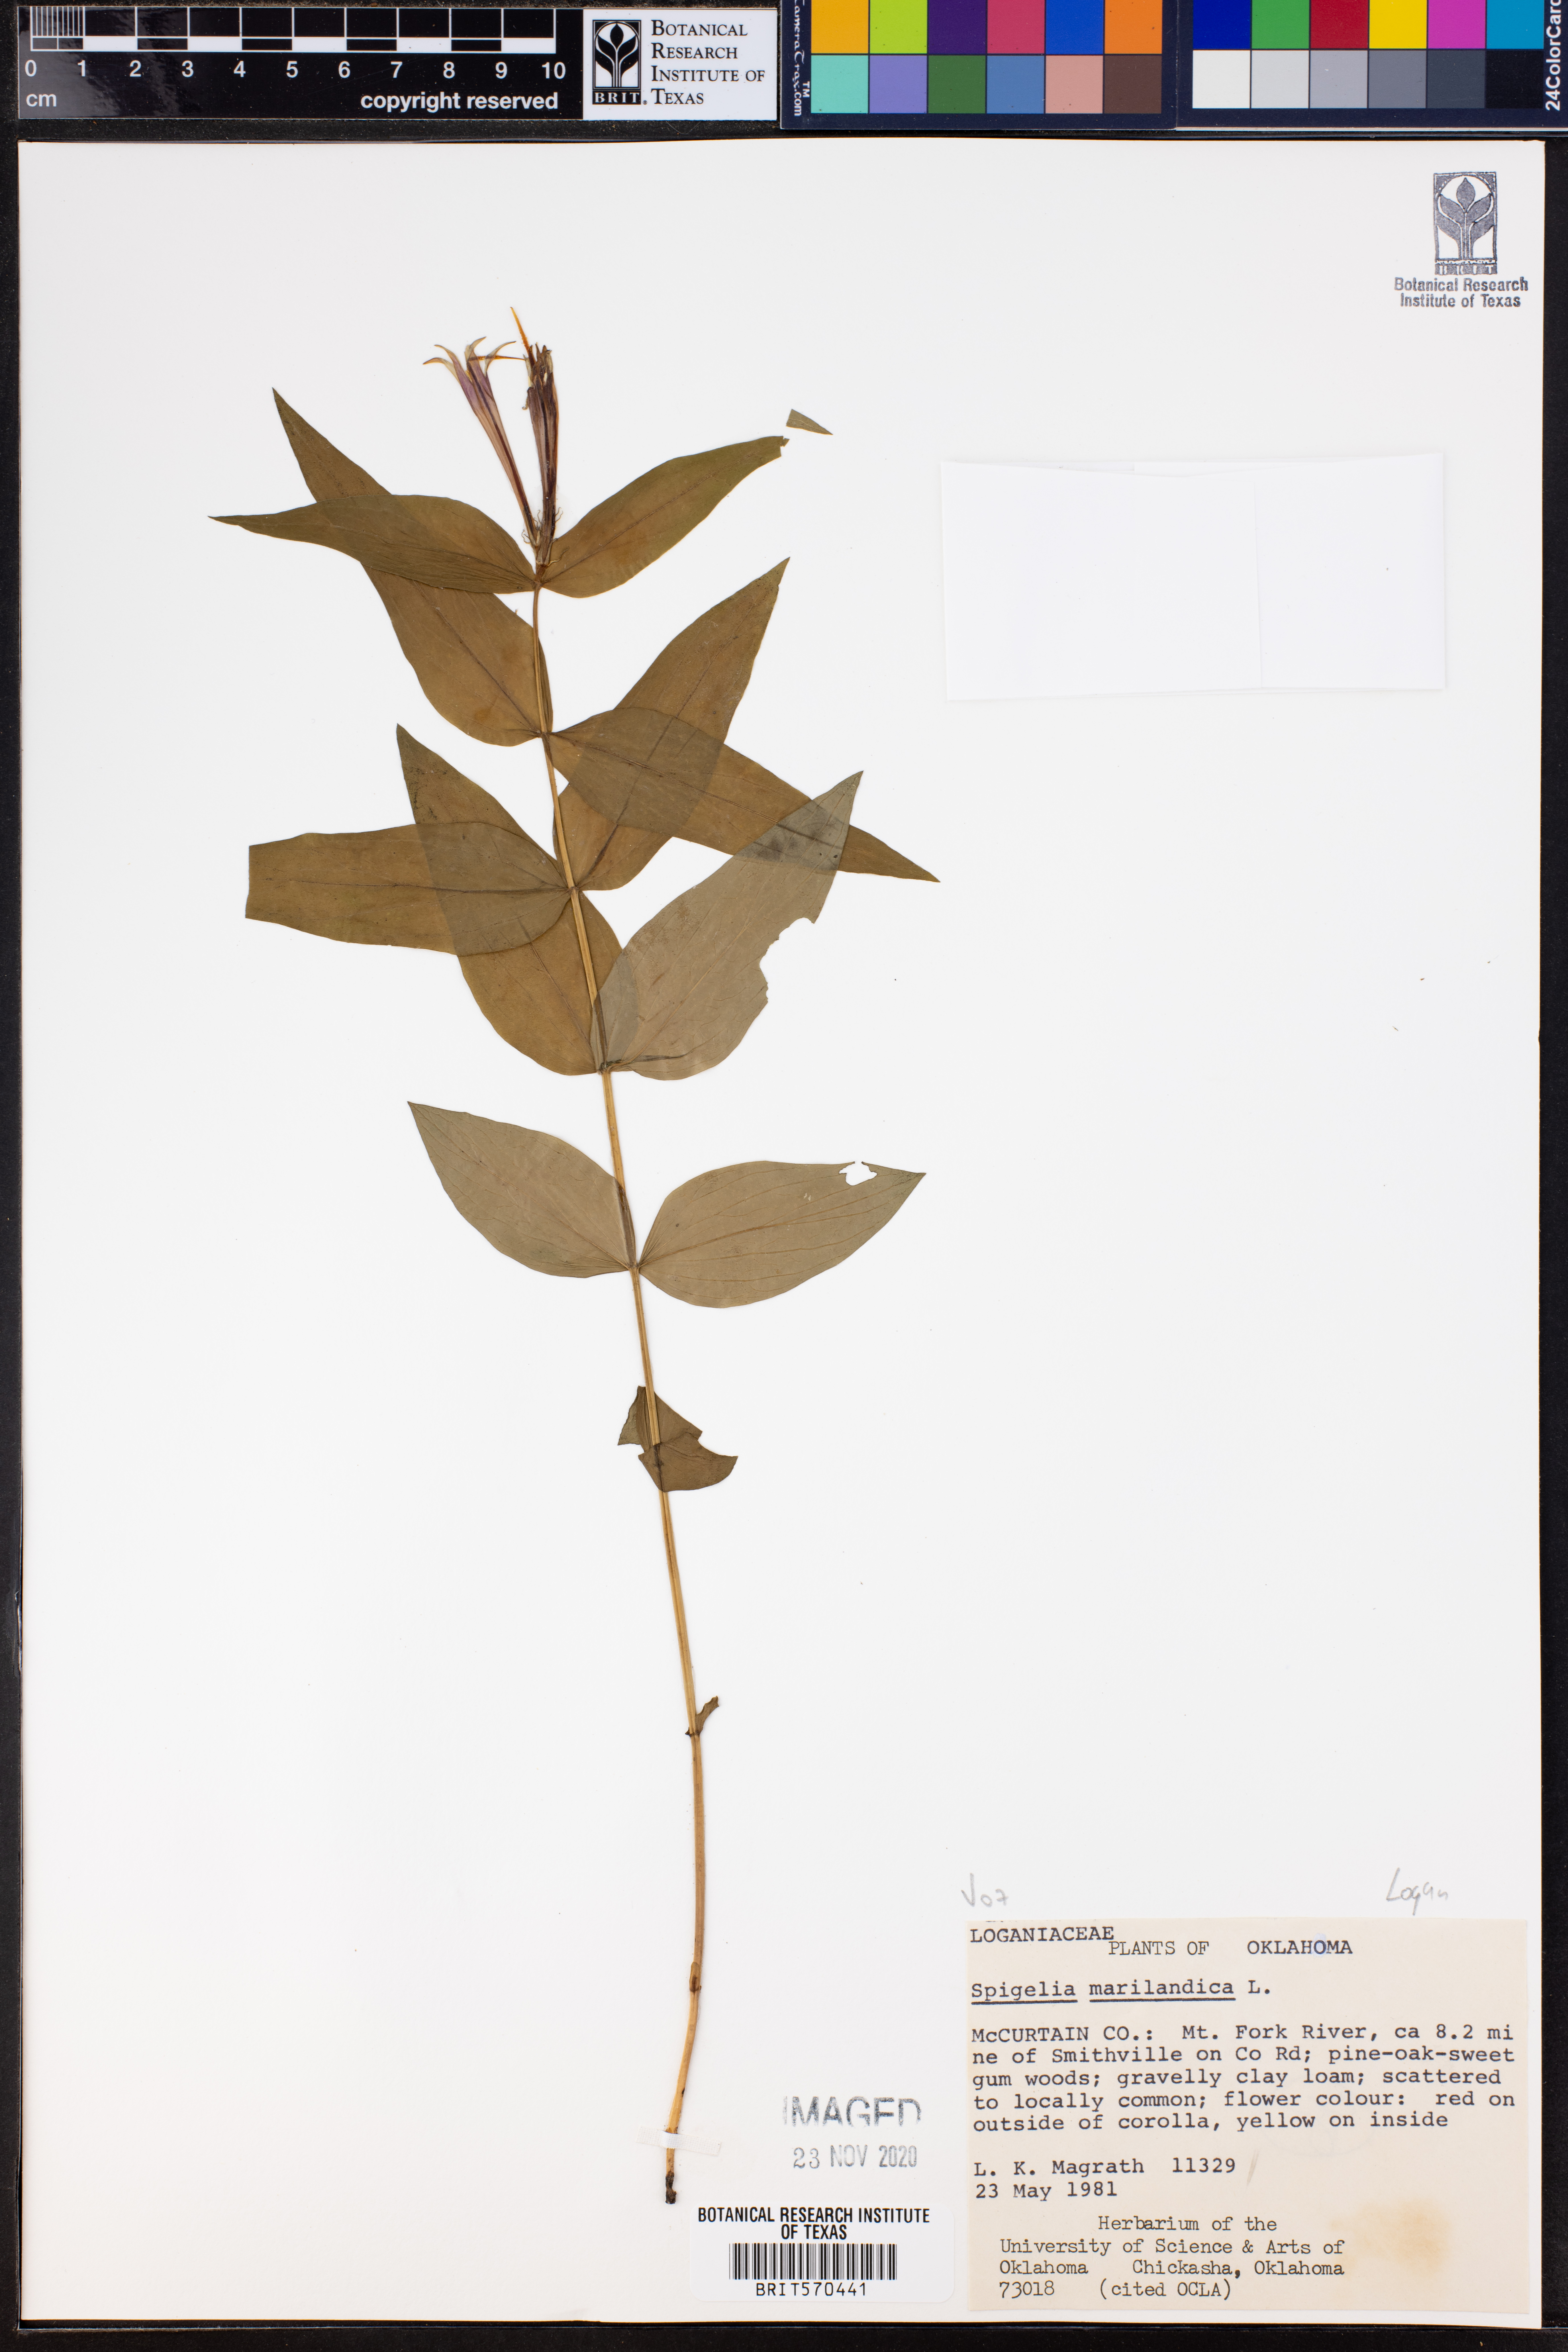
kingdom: Plantae
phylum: Tracheophyta
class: Magnoliopsida
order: Gentianales
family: Loganiaceae
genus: Spigelia
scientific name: Spigelia marilandica
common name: Indian-pink
